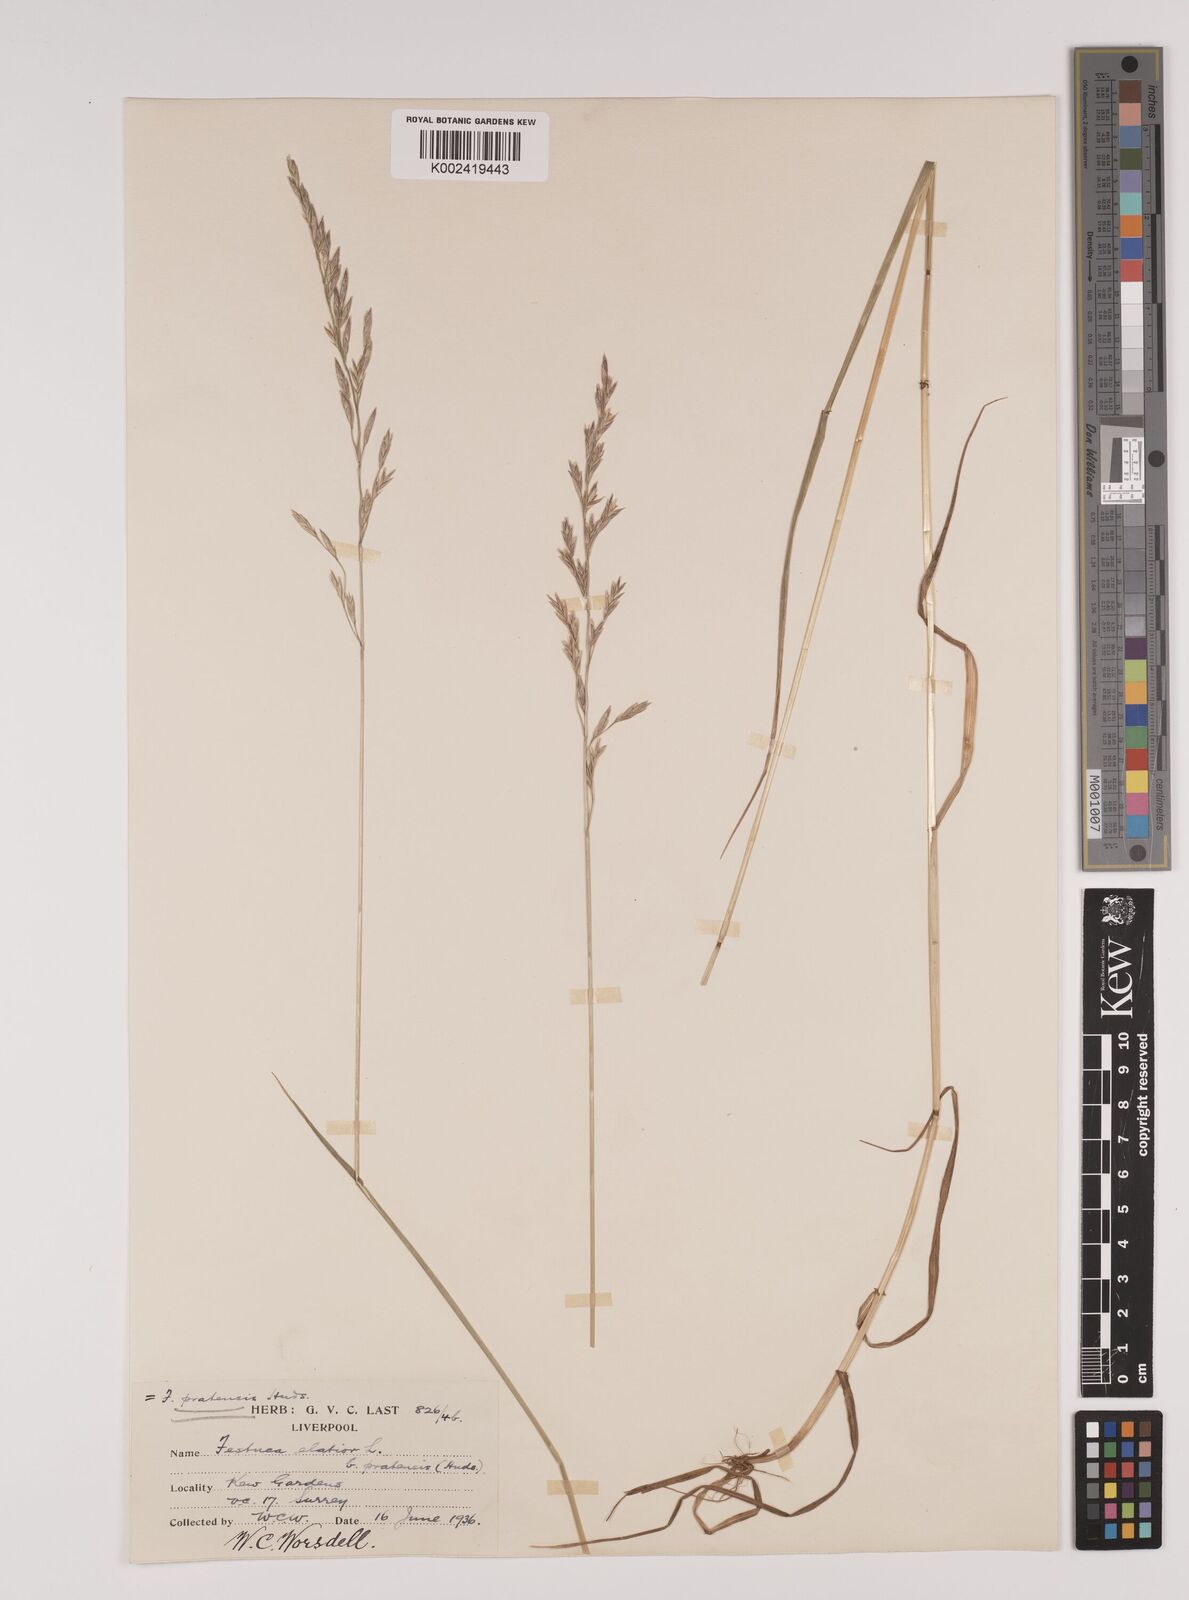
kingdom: Plantae
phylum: Tracheophyta
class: Liliopsida
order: Poales
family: Poaceae
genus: Lolium
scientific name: Lolium pratense
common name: Dover grass
